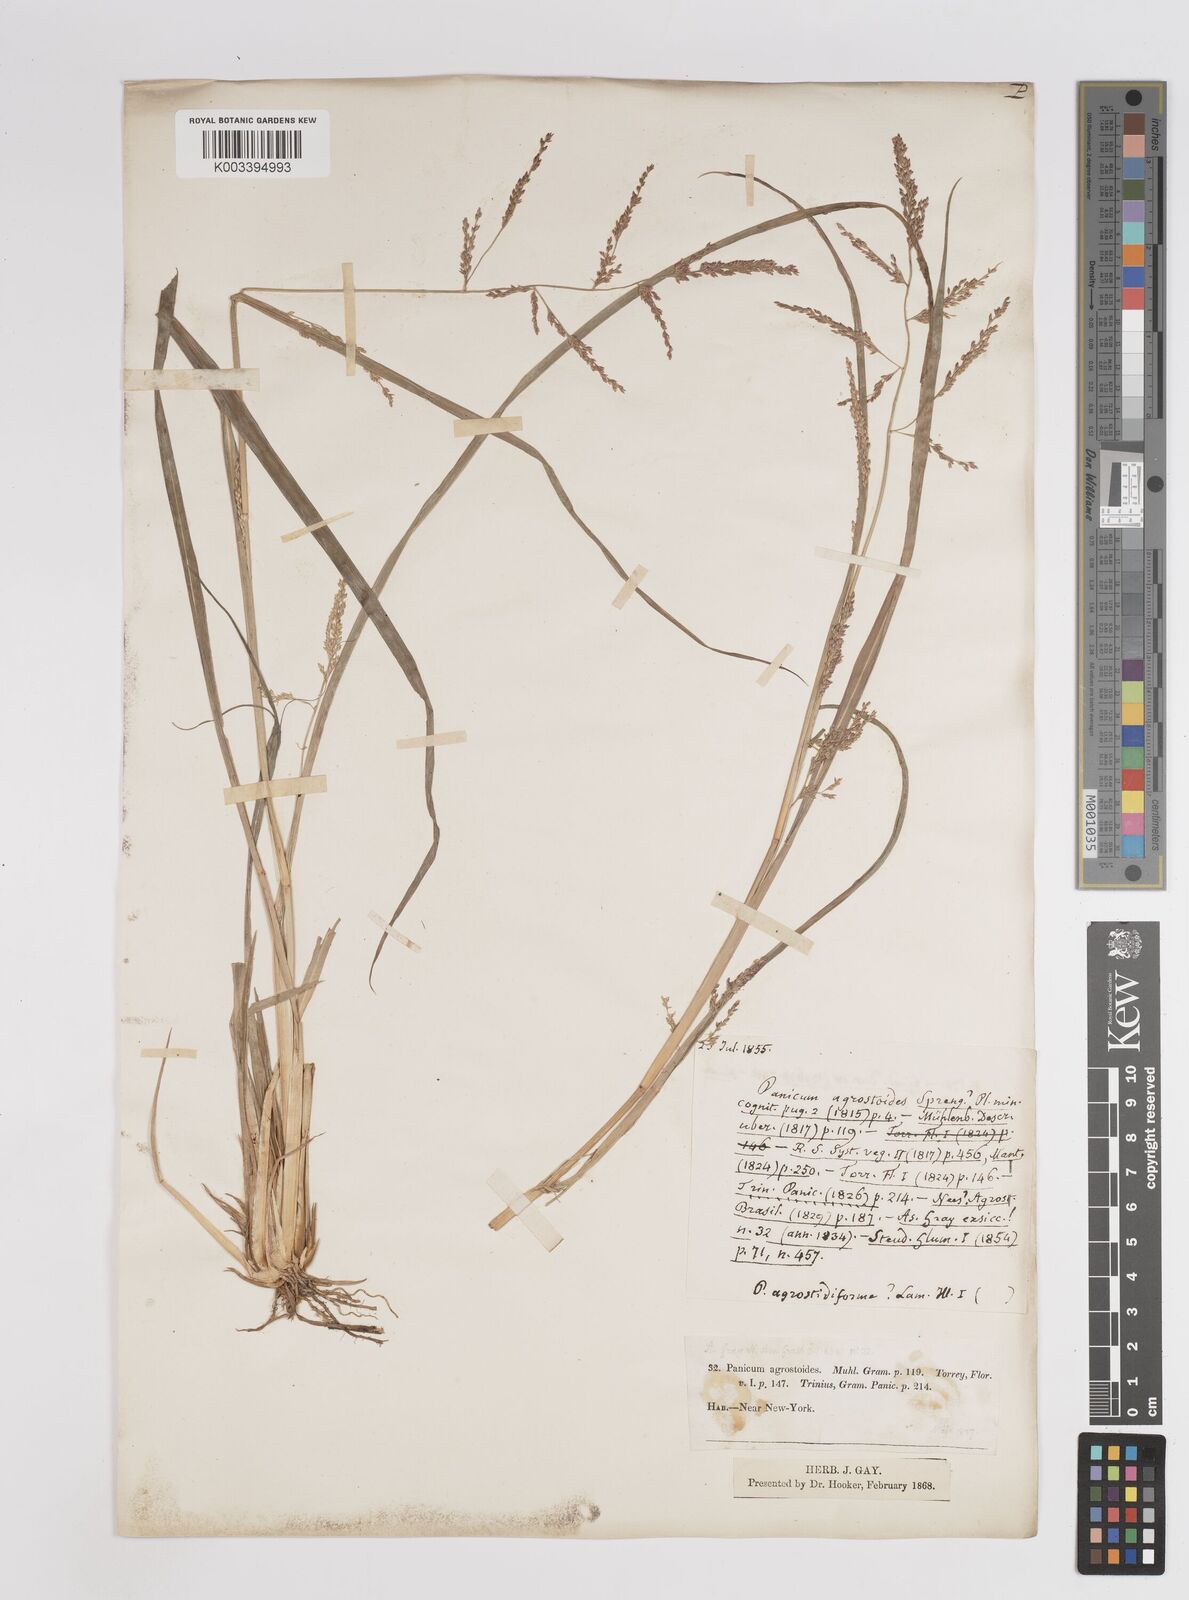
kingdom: Plantae
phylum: Tracheophyta
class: Liliopsida
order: Poales
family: Poaceae
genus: Coleataenia
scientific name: Coleataenia rigidula
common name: Redtop panicgrass
